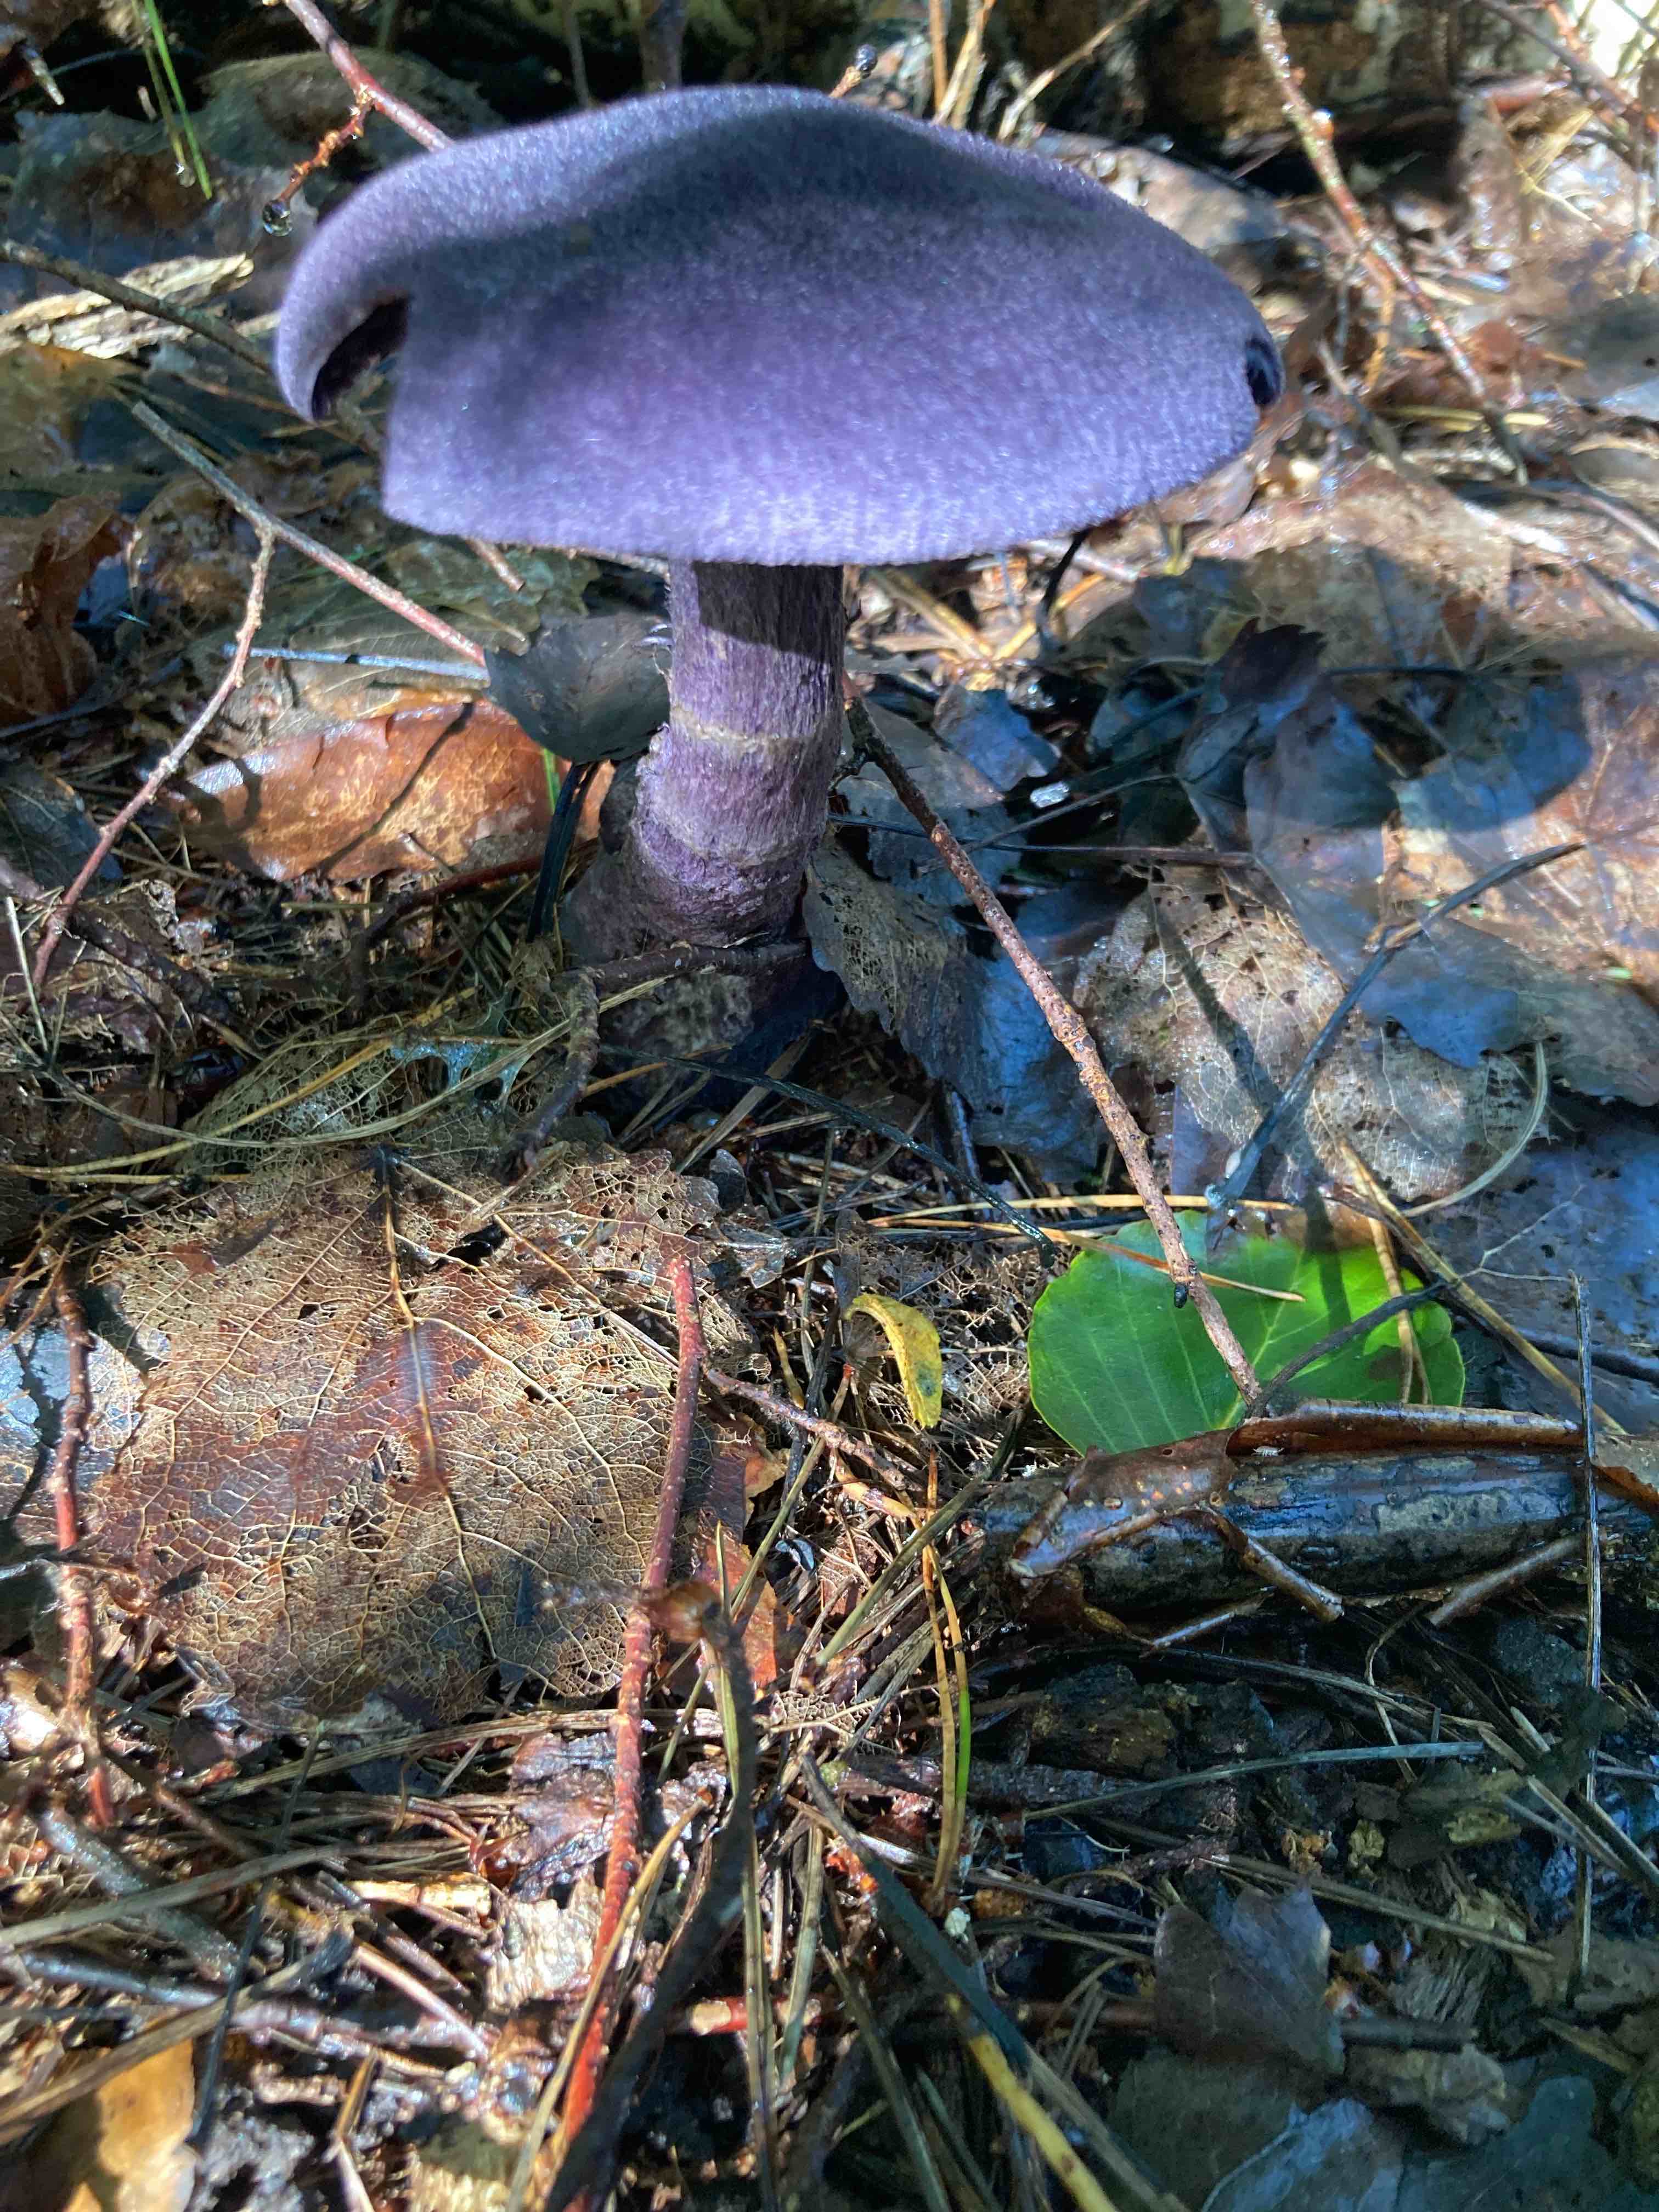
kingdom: Fungi
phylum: Basidiomycota
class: Agaricomycetes
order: Agaricales
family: Cortinariaceae
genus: Cortinarius
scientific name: Cortinarius violaceus
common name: mørkviolet slørhat
